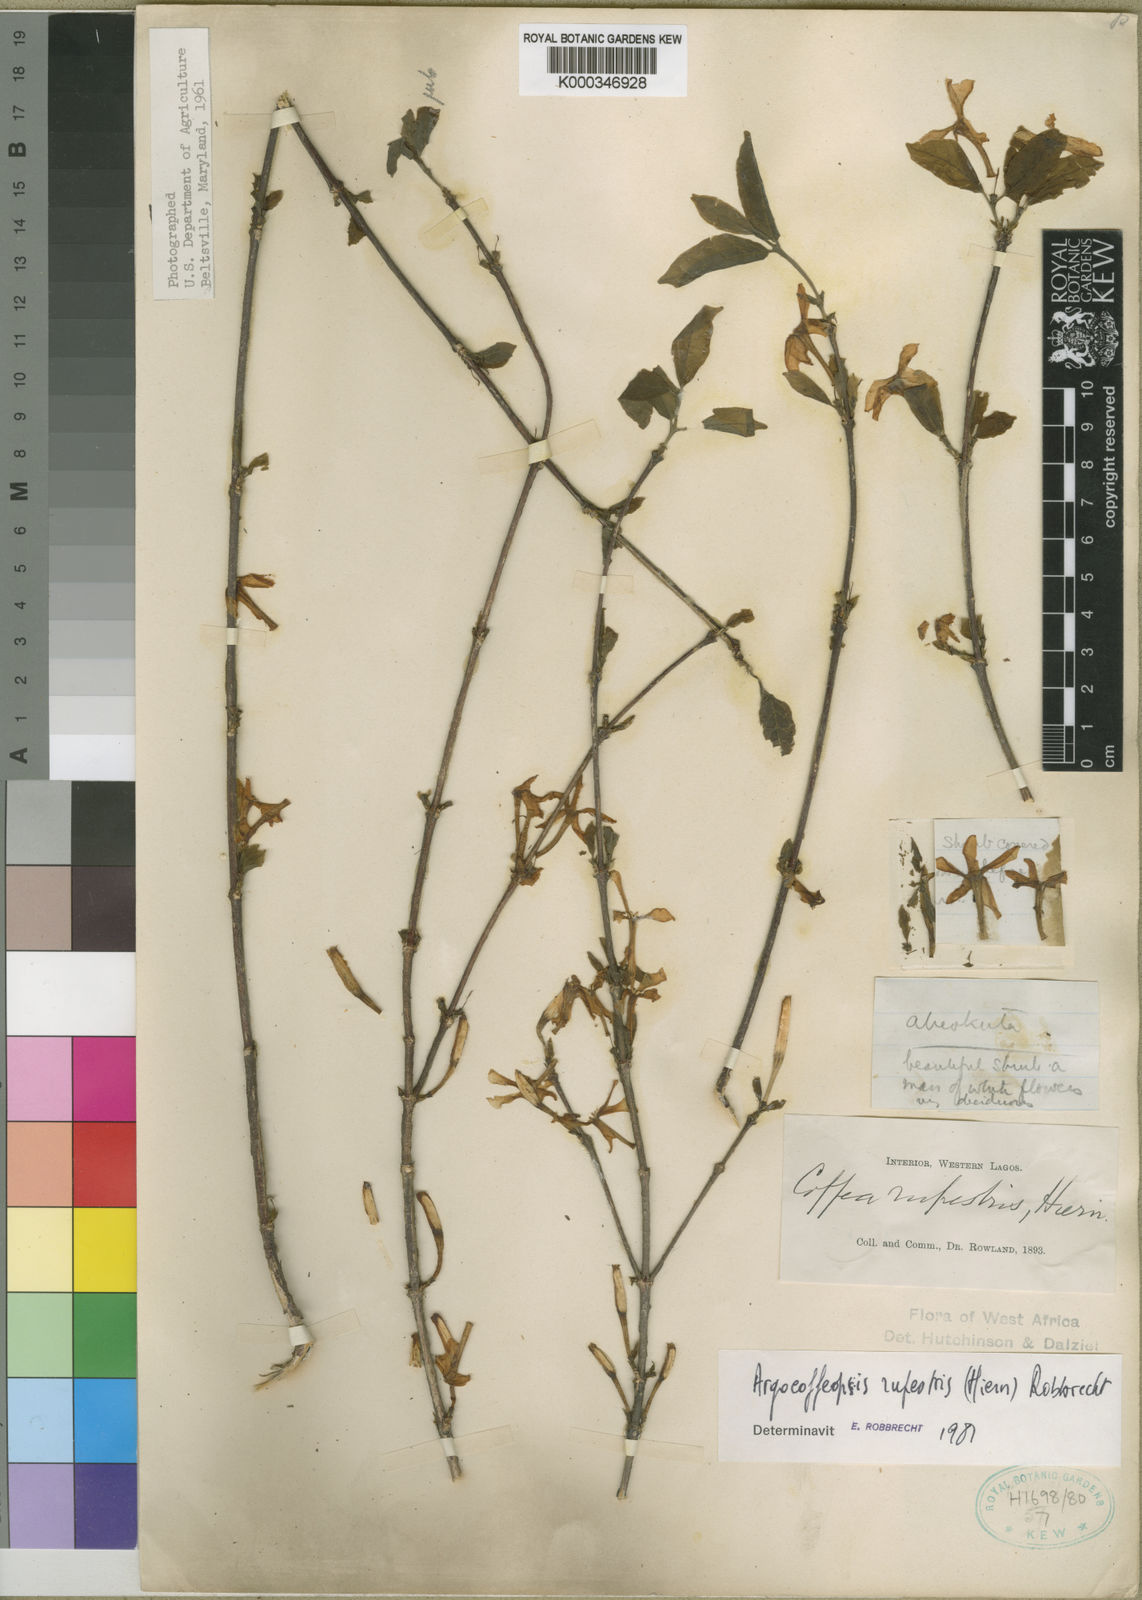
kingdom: Plantae
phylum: Tracheophyta
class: Magnoliopsida
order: Gentianales
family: Rubiaceae
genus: Argocoffeopsis
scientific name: Argocoffeopsis rupestris
